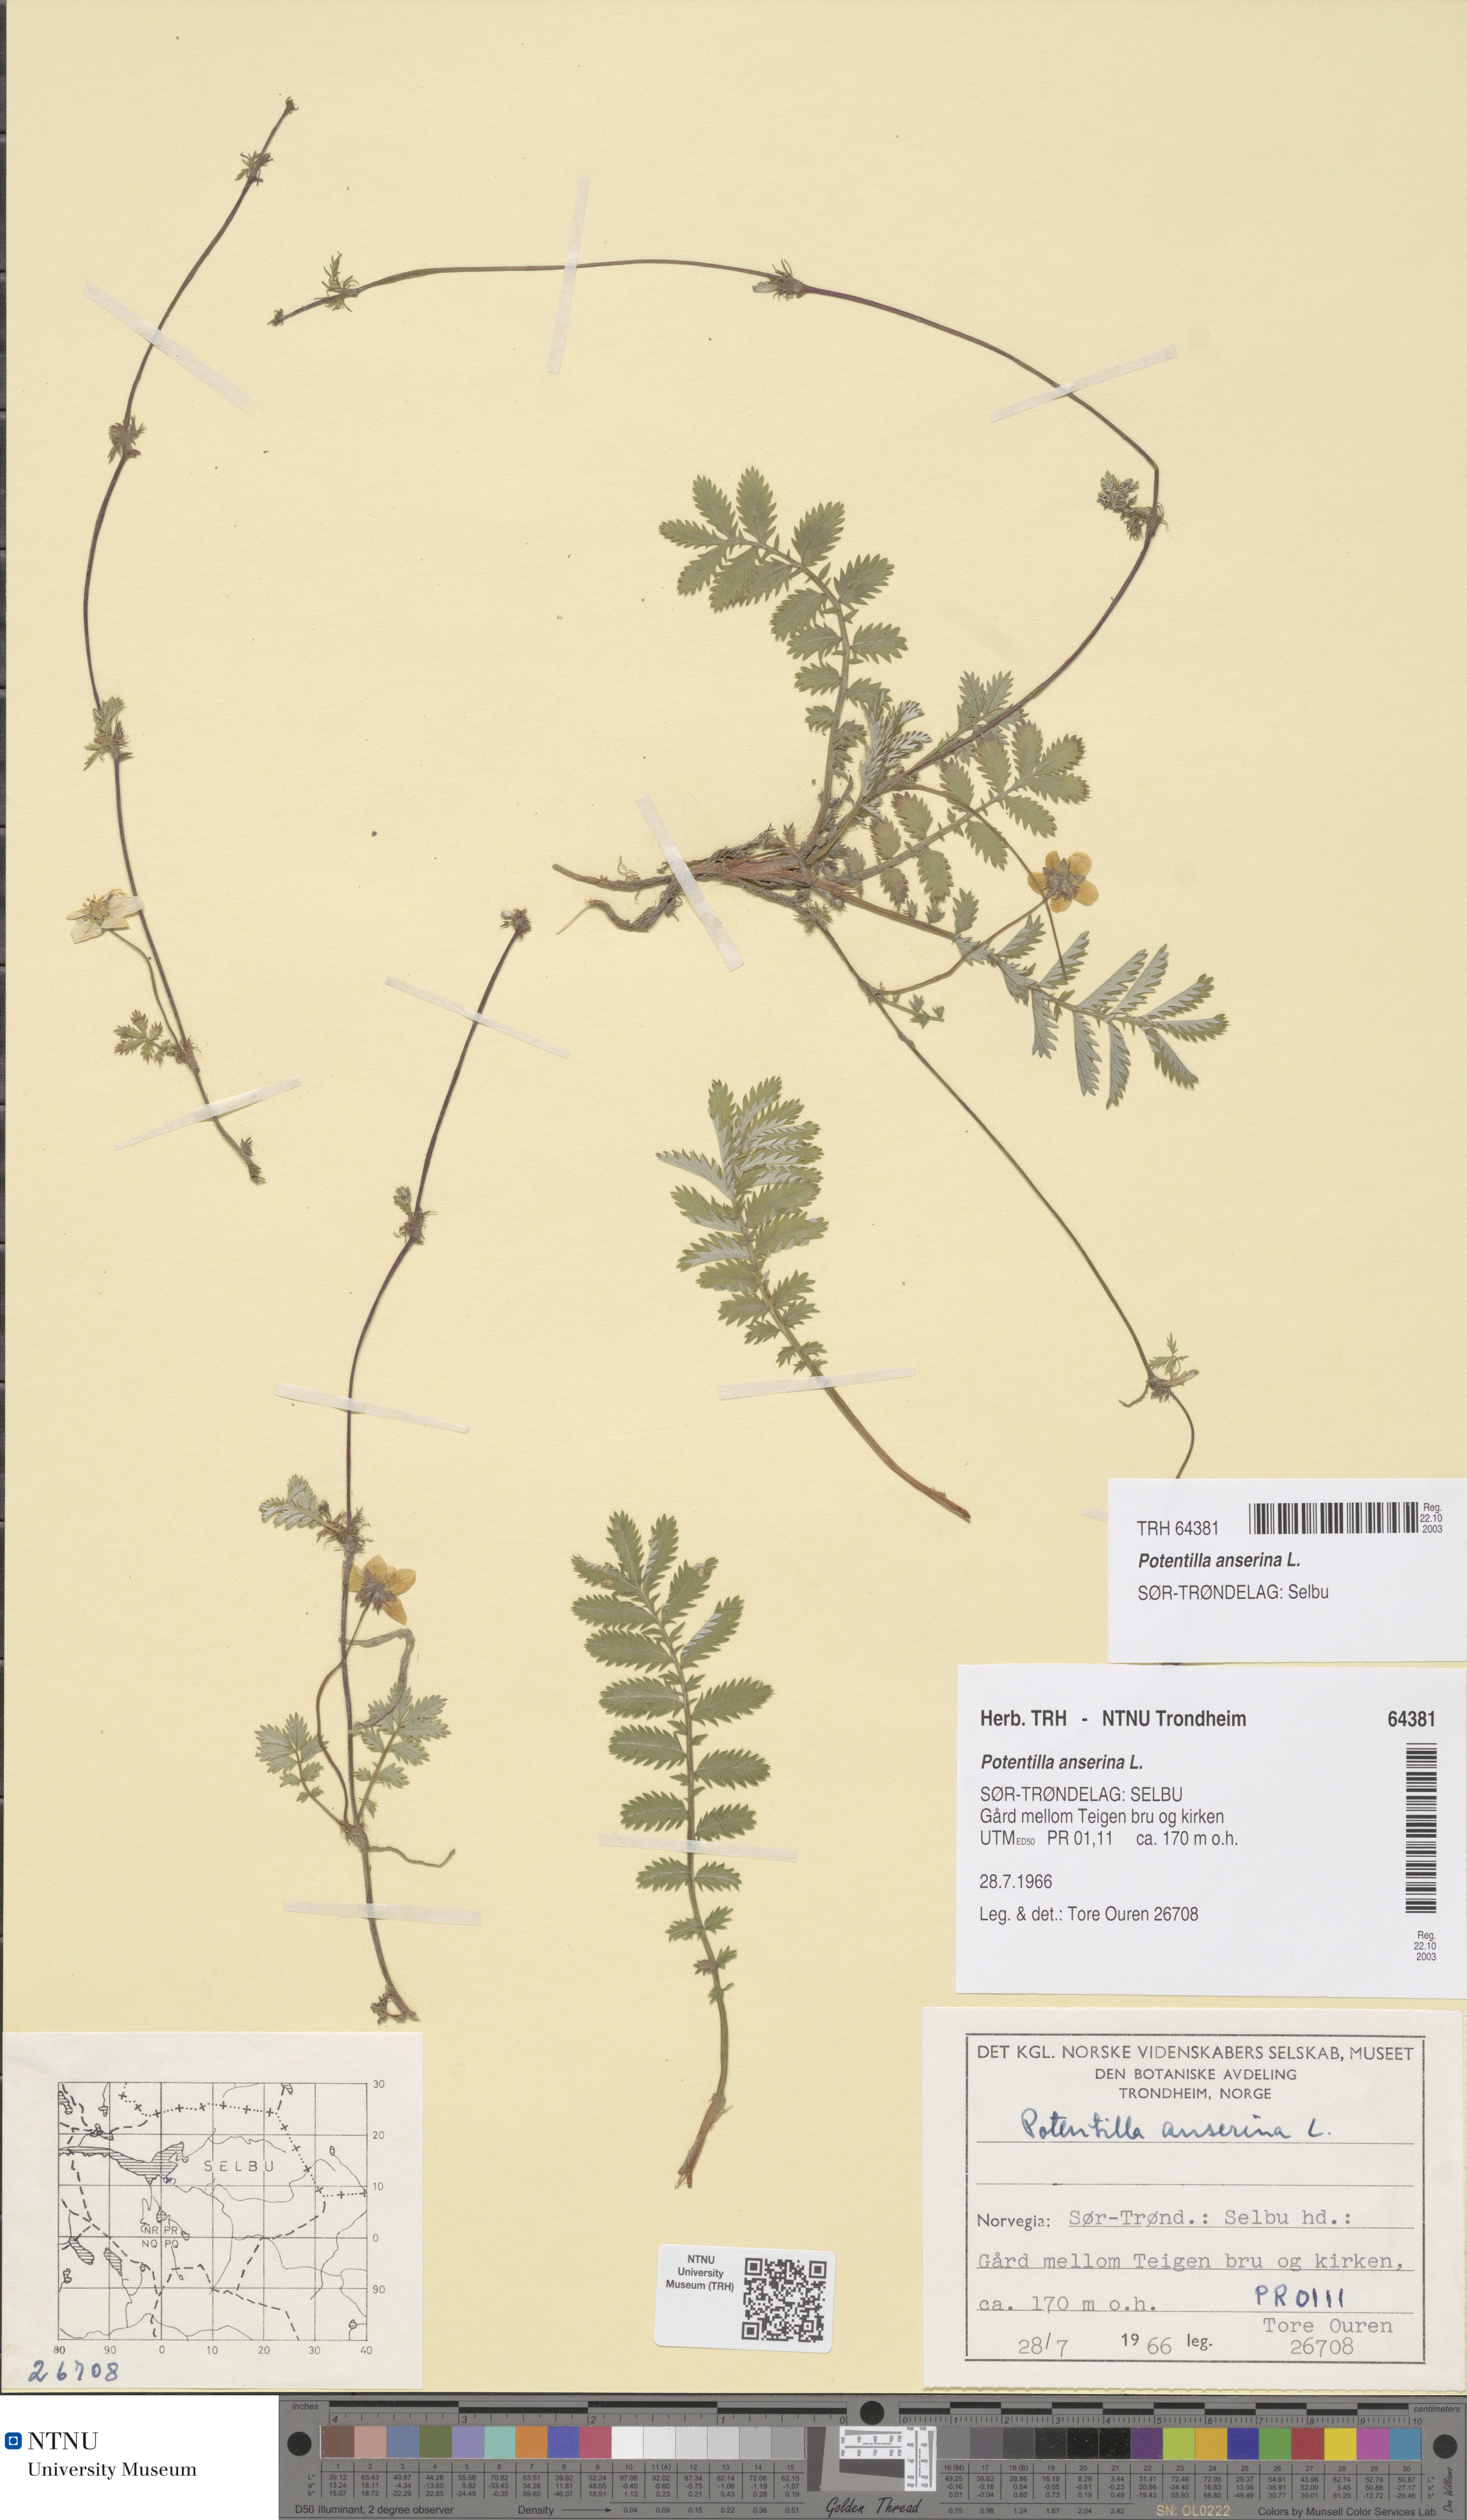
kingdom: Plantae
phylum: Tracheophyta
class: Magnoliopsida
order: Rosales
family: Rosaceae
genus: Argentina
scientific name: Argentina anserina
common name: Common silverweed
